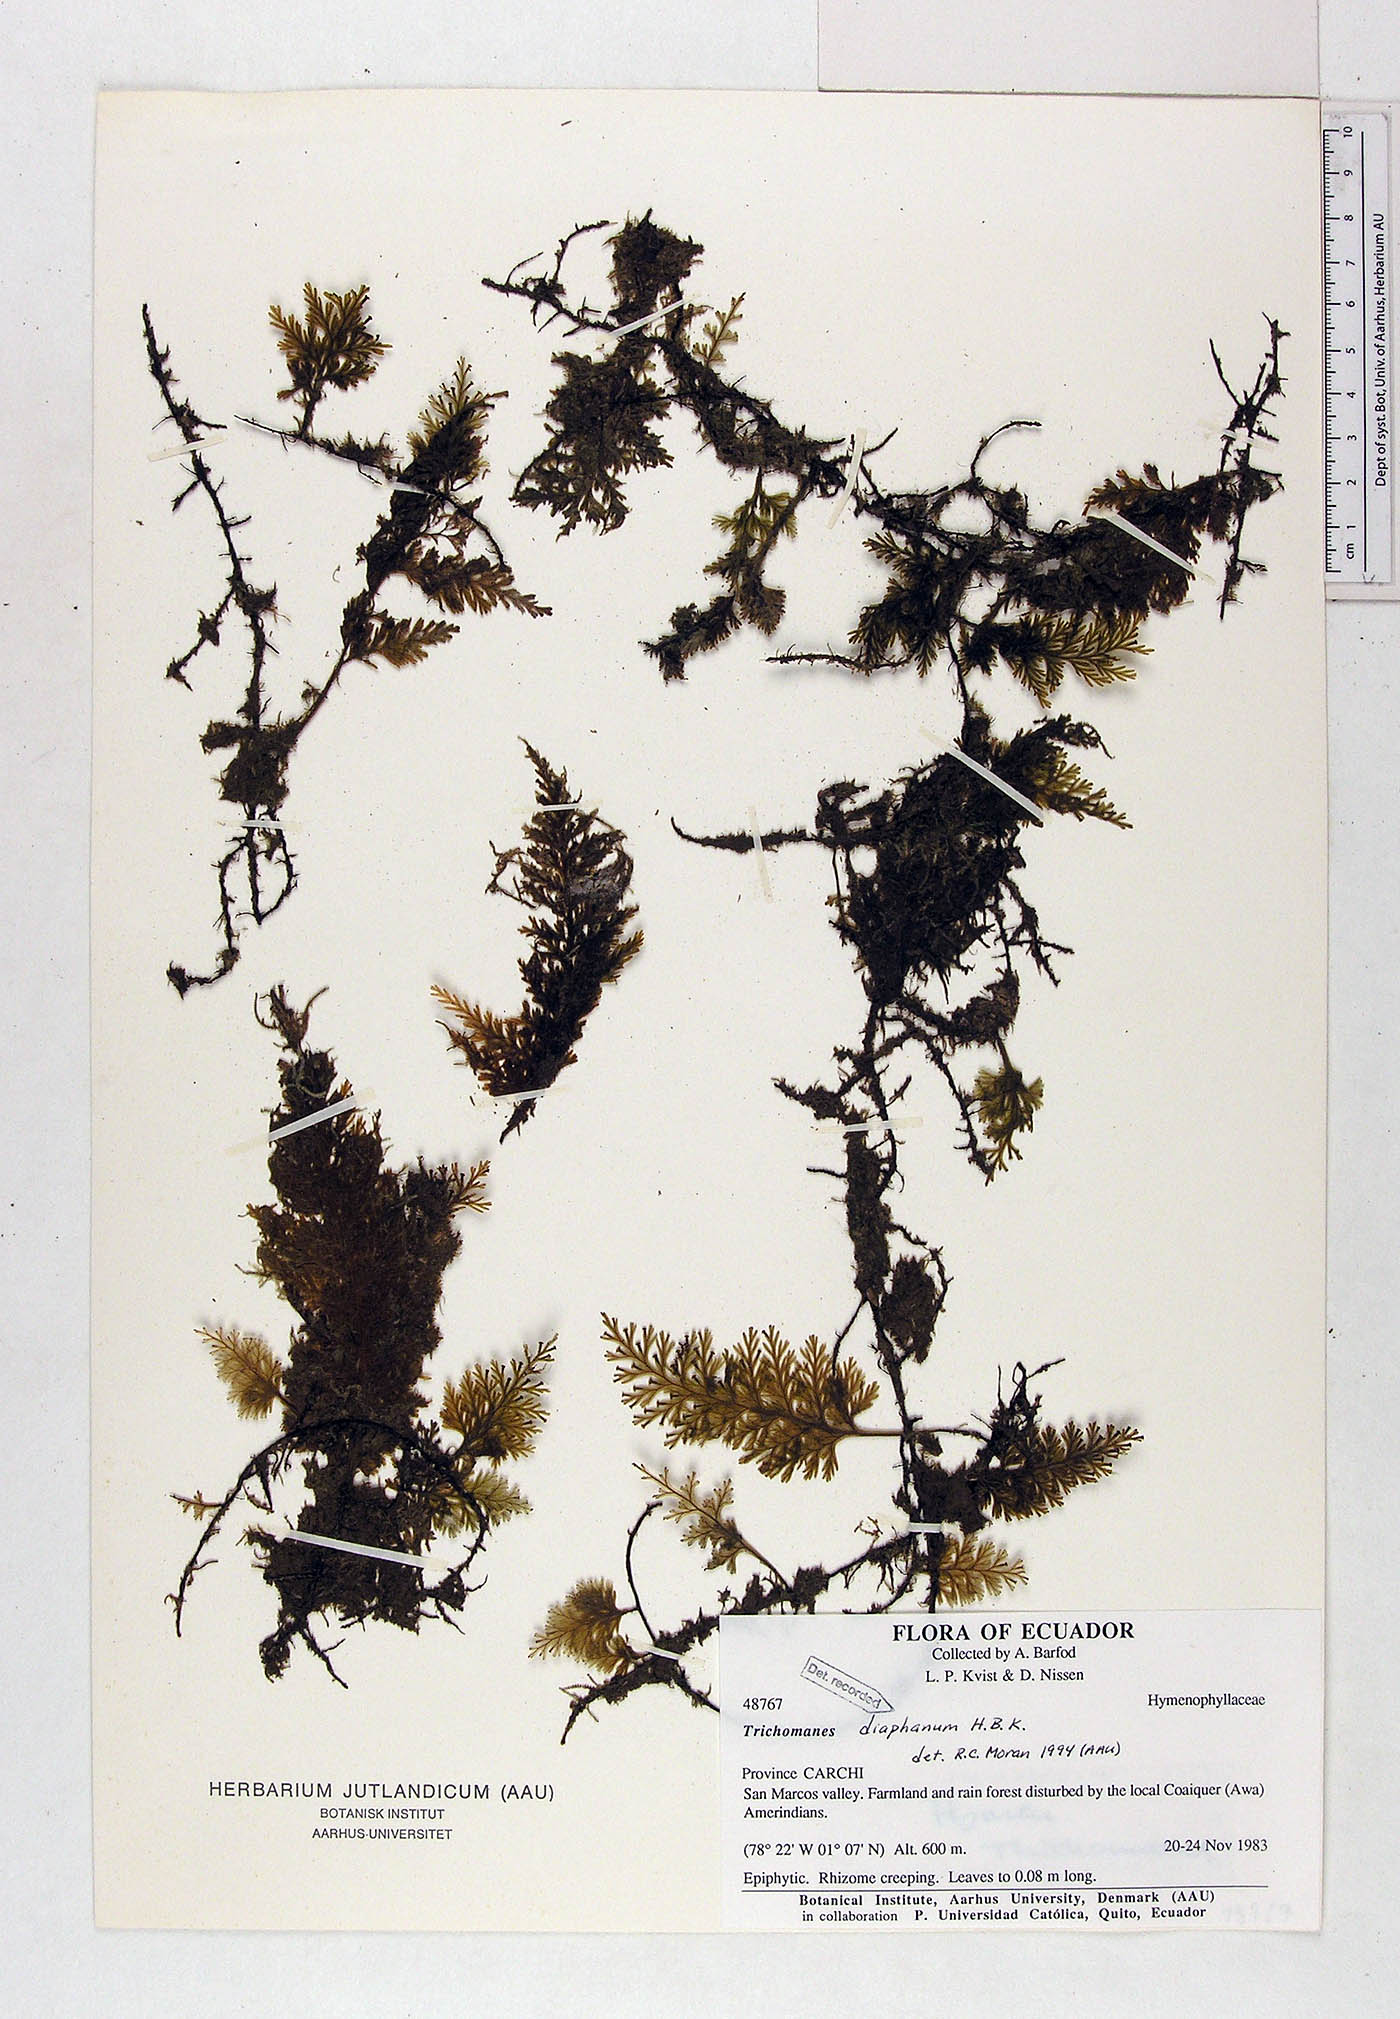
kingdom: Plantae
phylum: Tracheophyta
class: Polypodiopsida
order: Hymenophyllales
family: Hymenophyllaceae
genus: Polyphlebium
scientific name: Polyphlebium diaphanum
